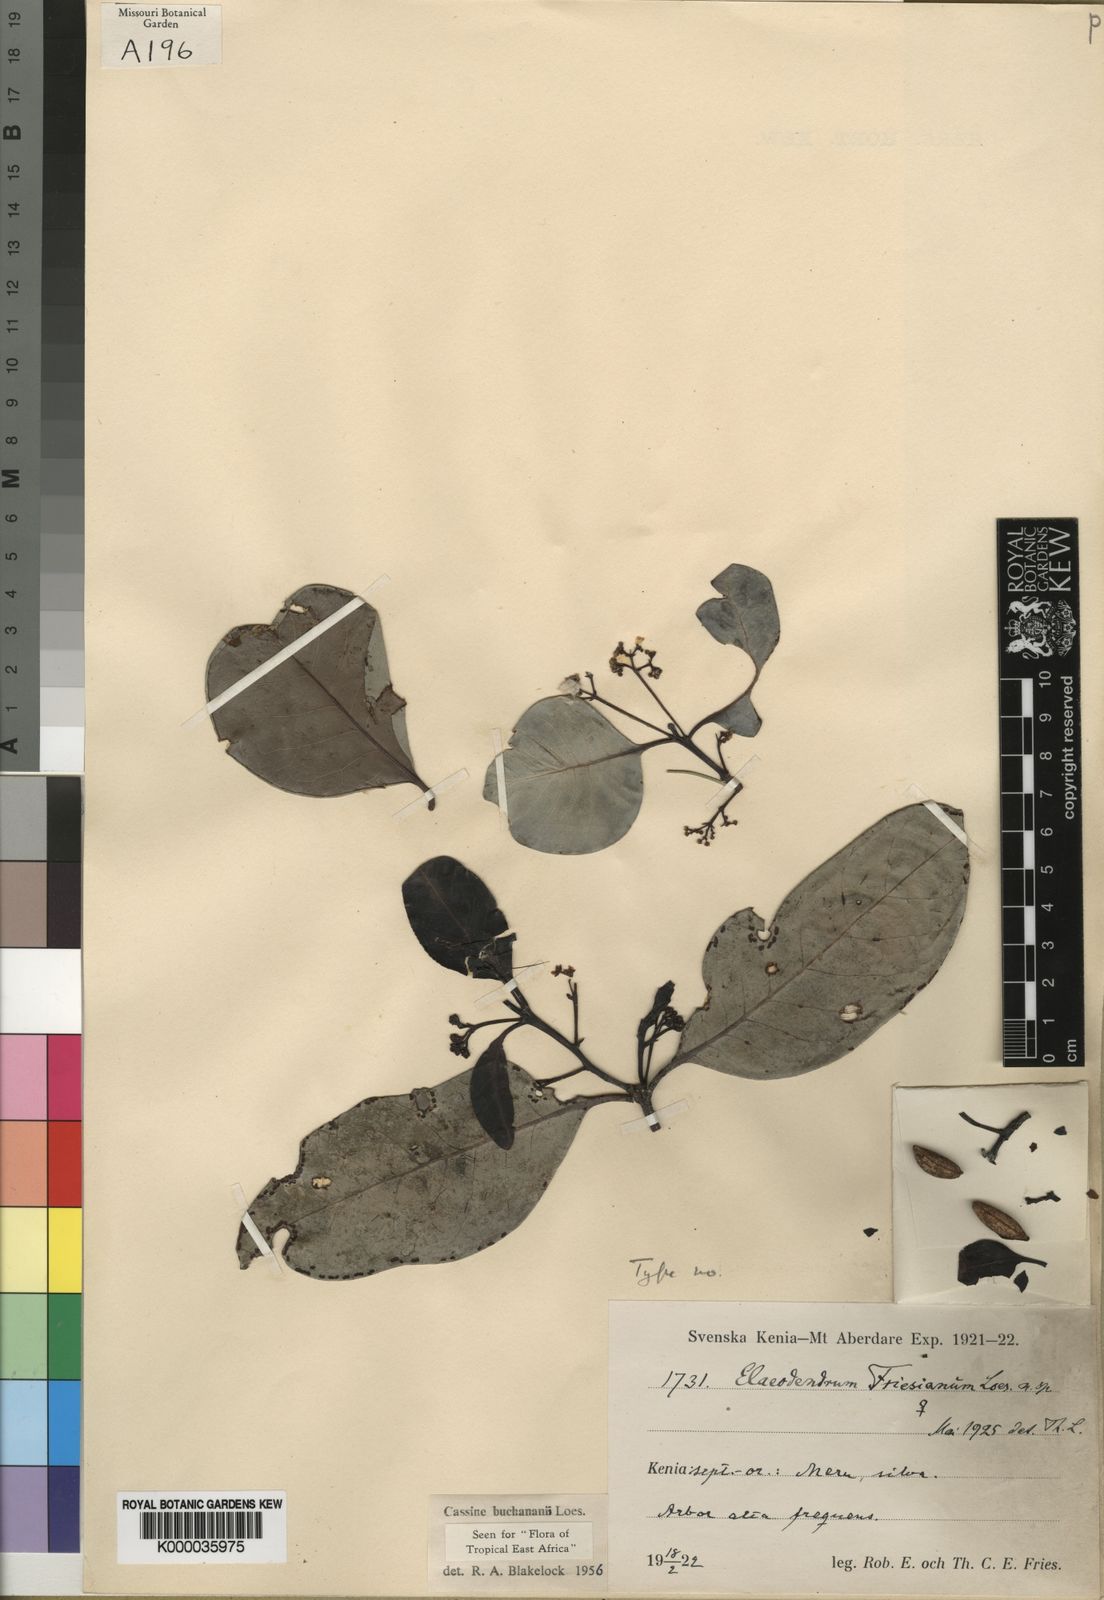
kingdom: Plantae
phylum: Tracheophyta
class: Magnoliopsida
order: Celastrales
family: Celastraceae
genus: Elaeodendron
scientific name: Elaeodendron buchananii
